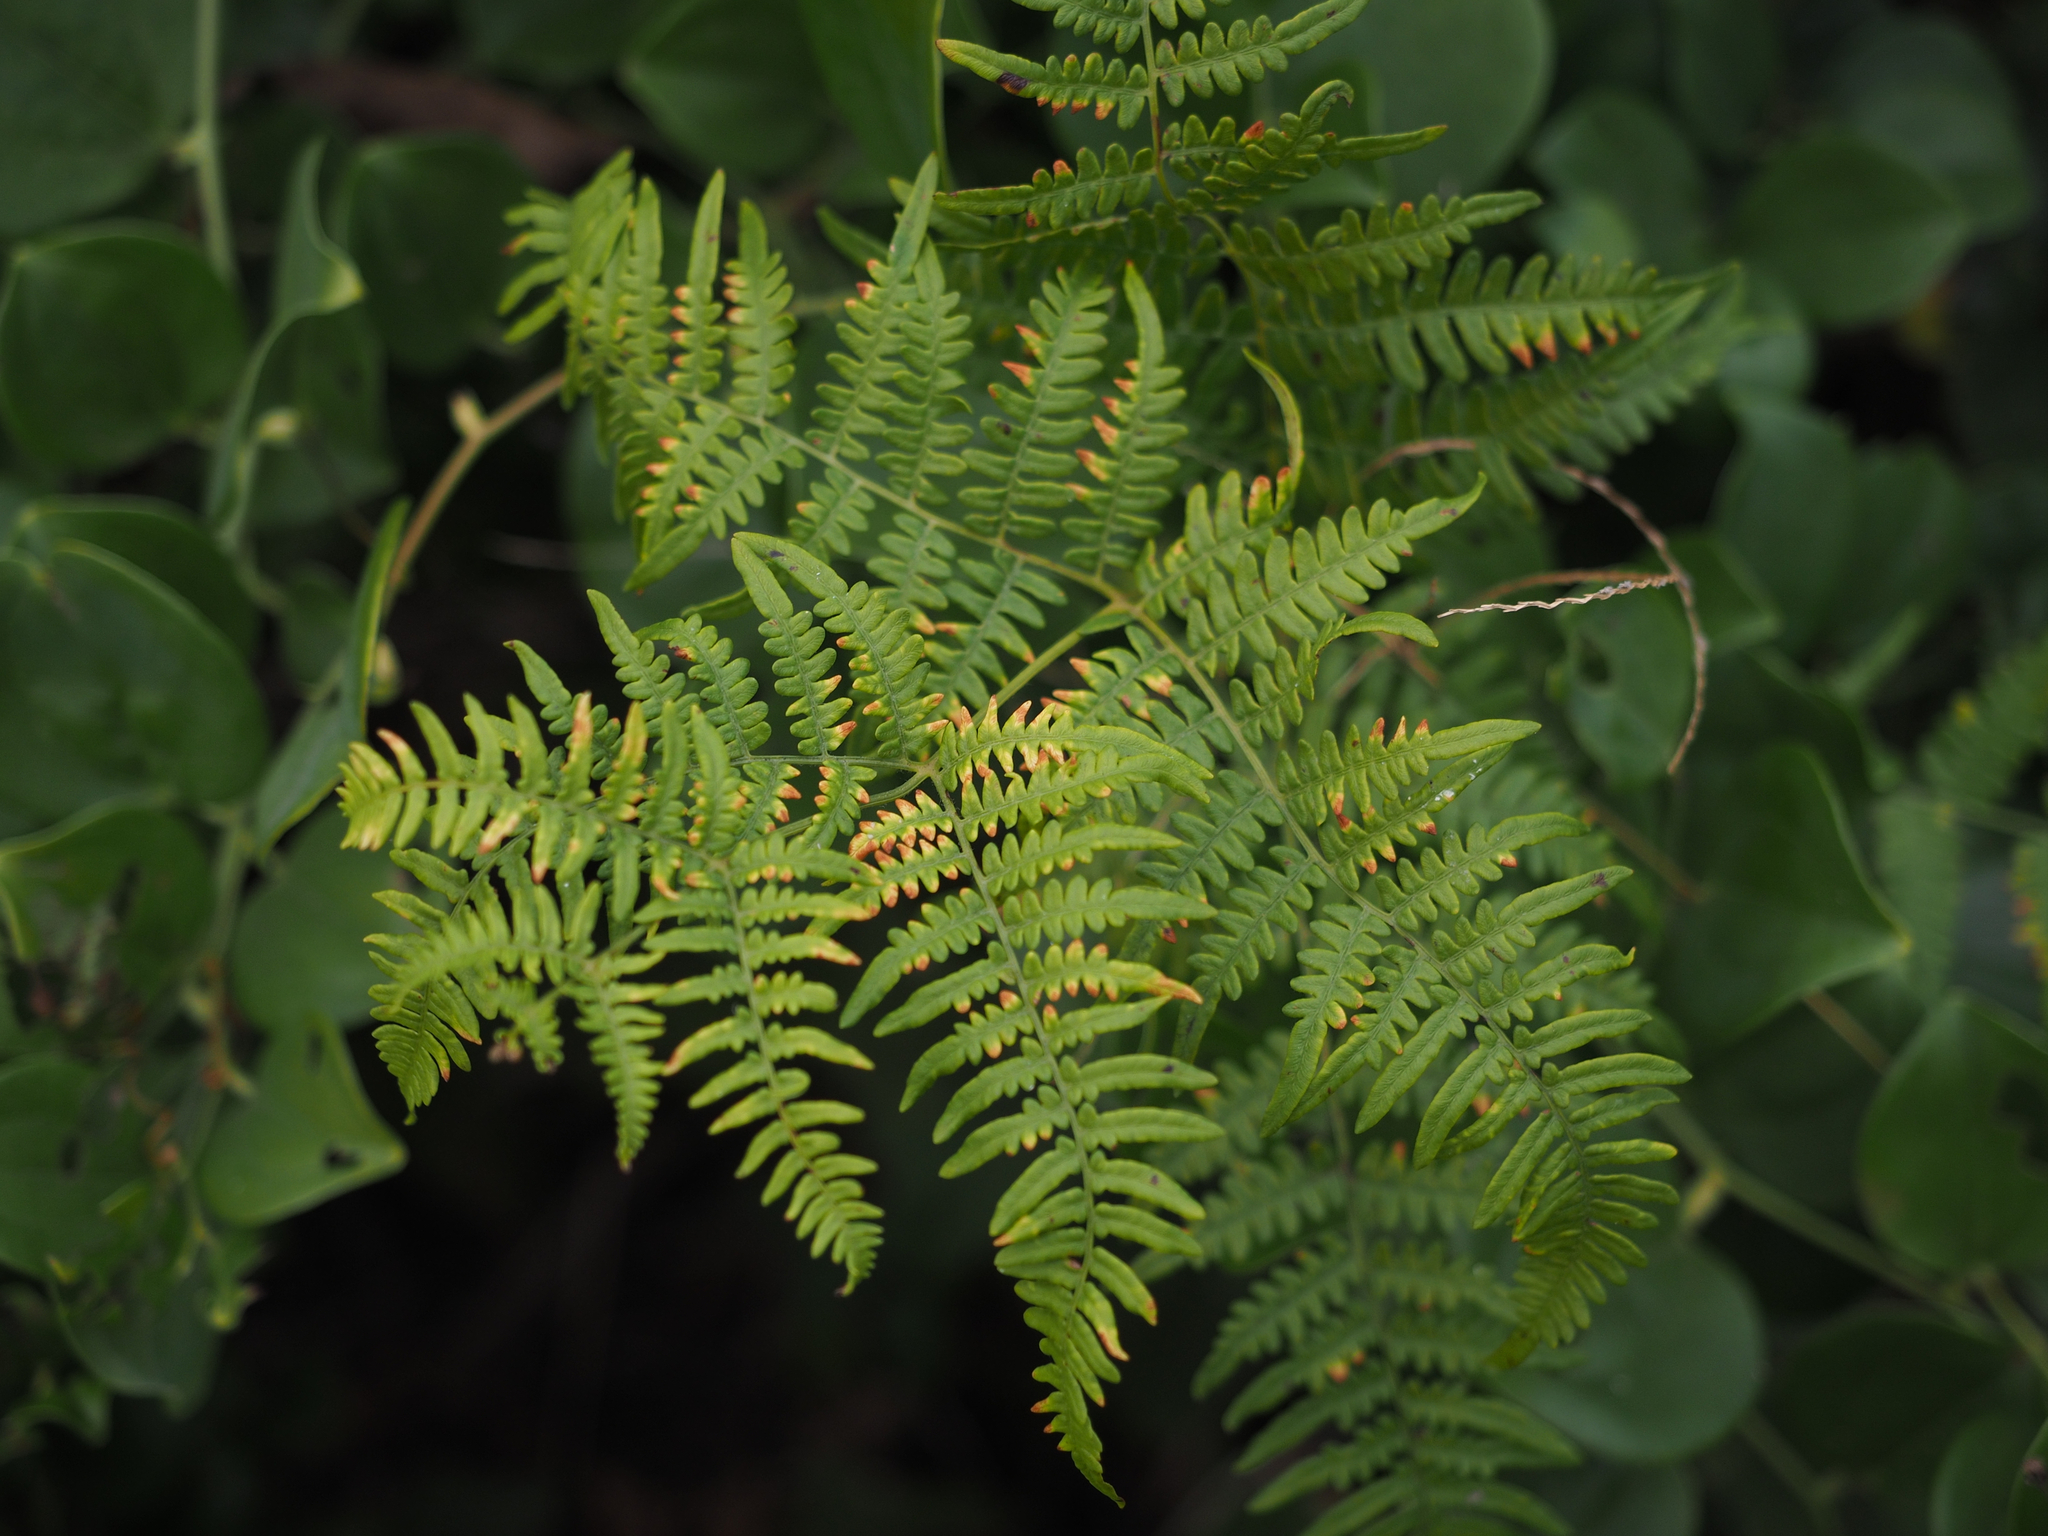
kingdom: Plantae
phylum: Tracheophyta
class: Polypodiopsida
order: Polypodiales
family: Dennstaedtiaceae
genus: Pteridium
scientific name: Pteridium aquilinum
